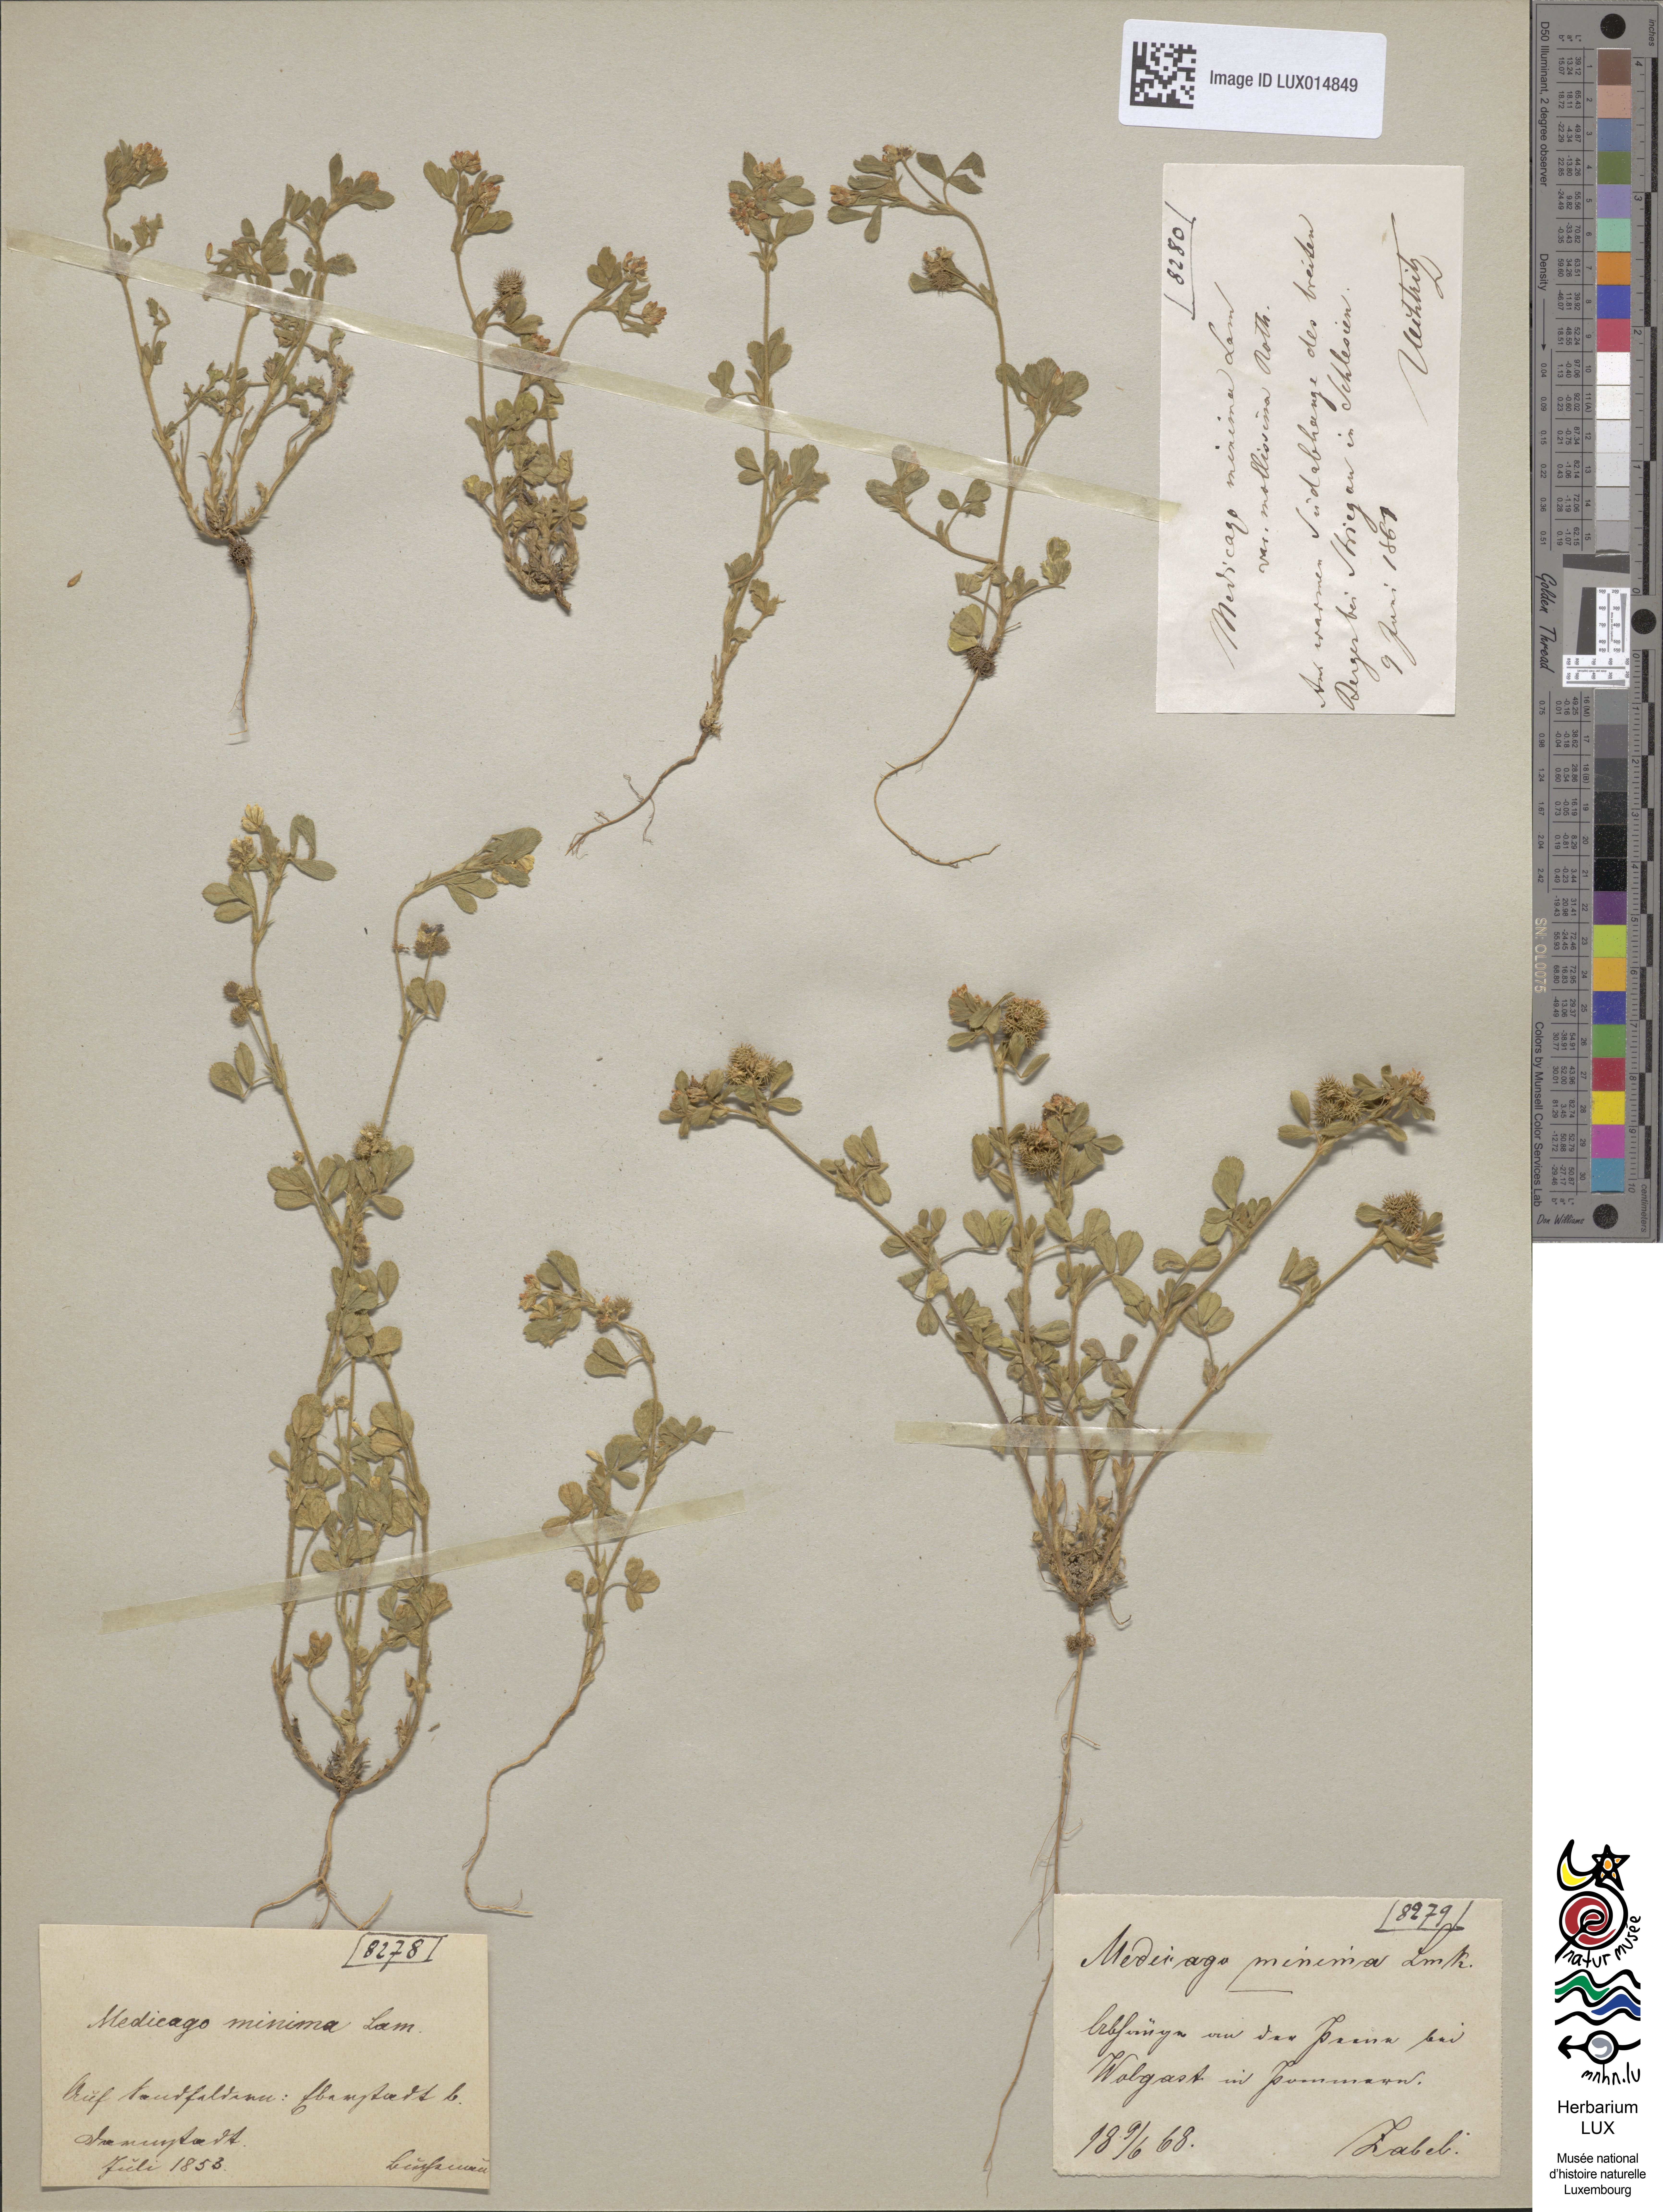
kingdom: Plantae
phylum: Tracheophyta
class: Magnoliopsida
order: Fabales
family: Fabaceae
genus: Medicago
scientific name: Medicago minima
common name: Little bur-clover
